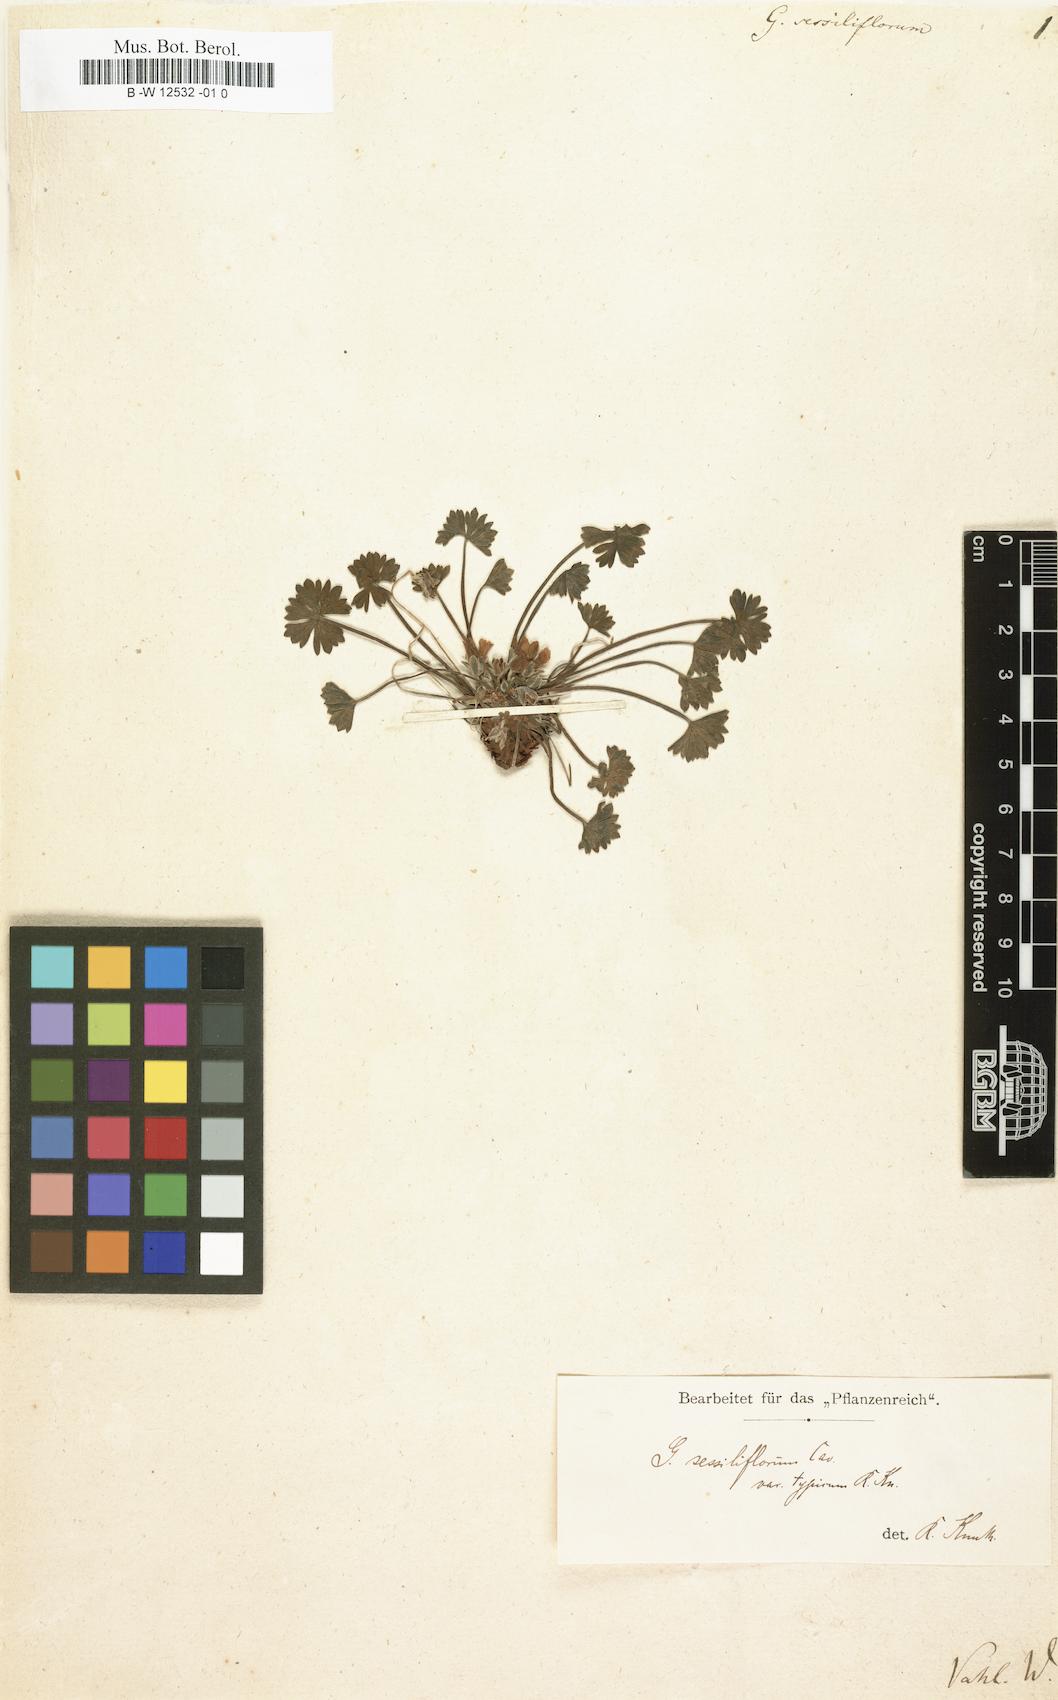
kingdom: Plantae
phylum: Tracheophyta
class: Magnoliopsida
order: Geraniales
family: Geraniaceae
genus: Geranium
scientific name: Geranium sessiliflorum
